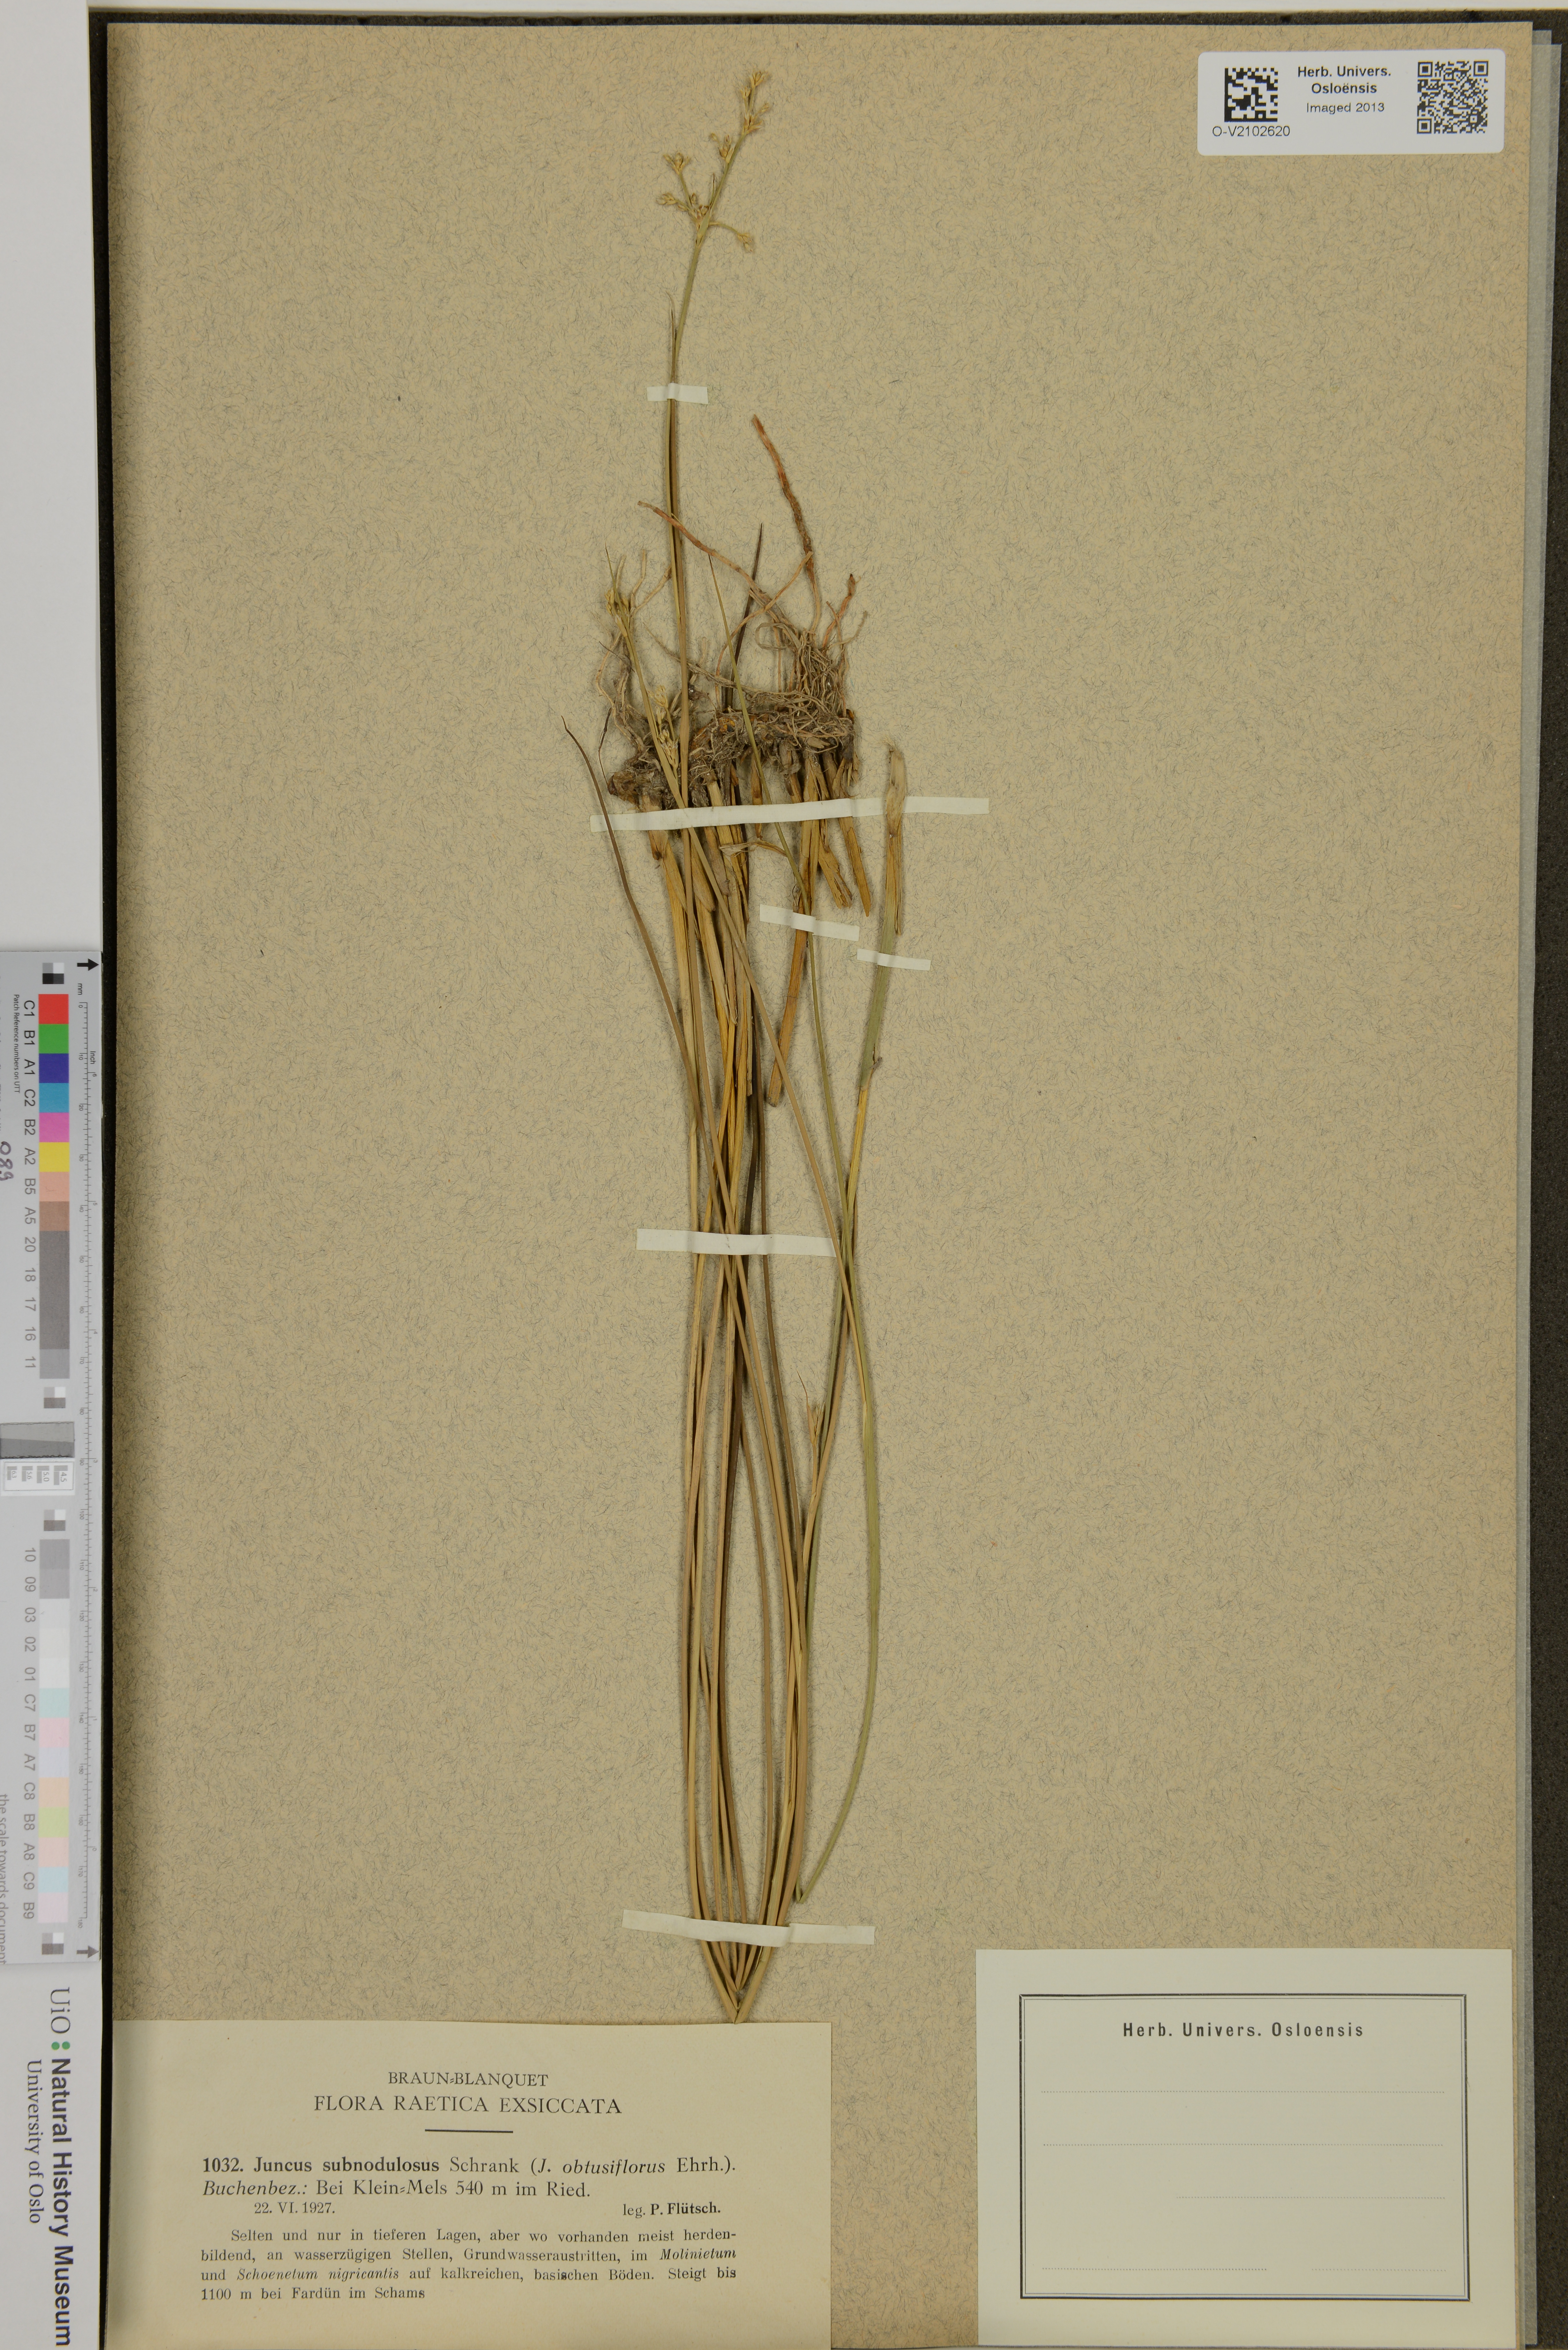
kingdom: Plantae
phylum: Tracheophyta
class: Liliopsida
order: Poales
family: Juncaceae
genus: Juncus
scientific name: Juncus subnodulosus
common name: Blunt-flowered rush
